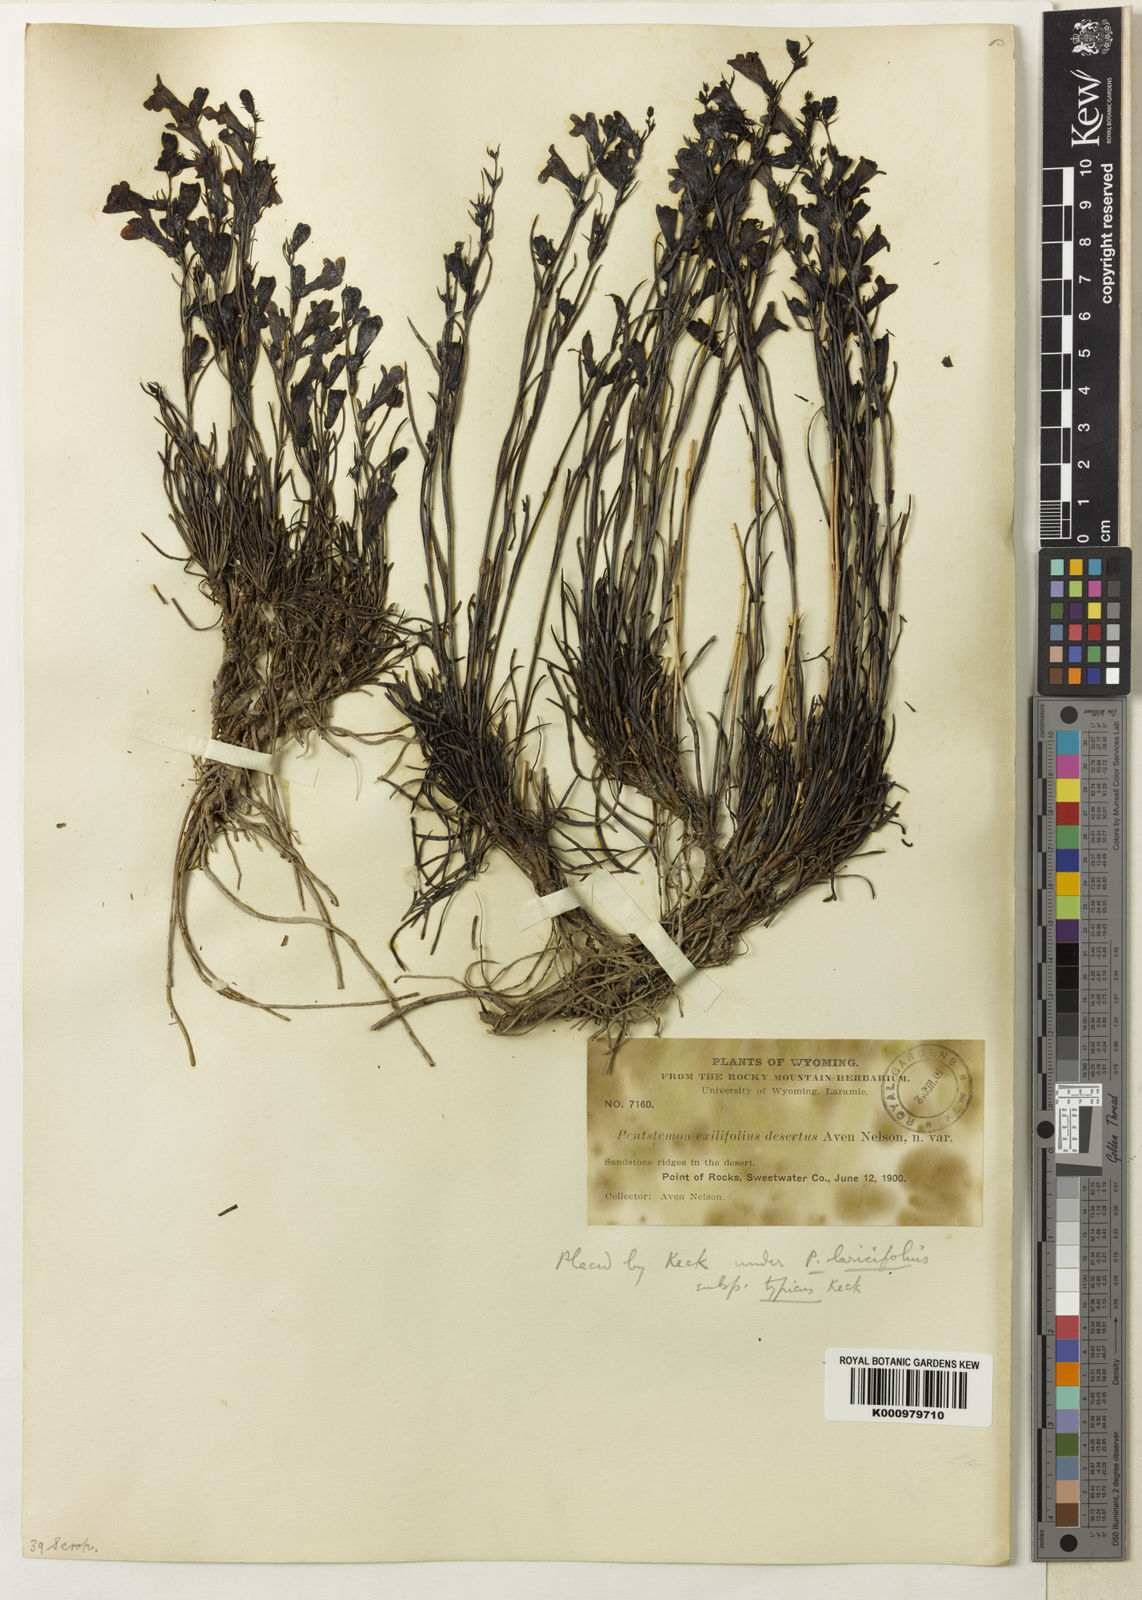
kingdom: Plantae
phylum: Tracheophyta
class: Magnoliopsida
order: Lamiales
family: Plantaginaceae
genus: Penstemon
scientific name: Penstemon laricifolius
